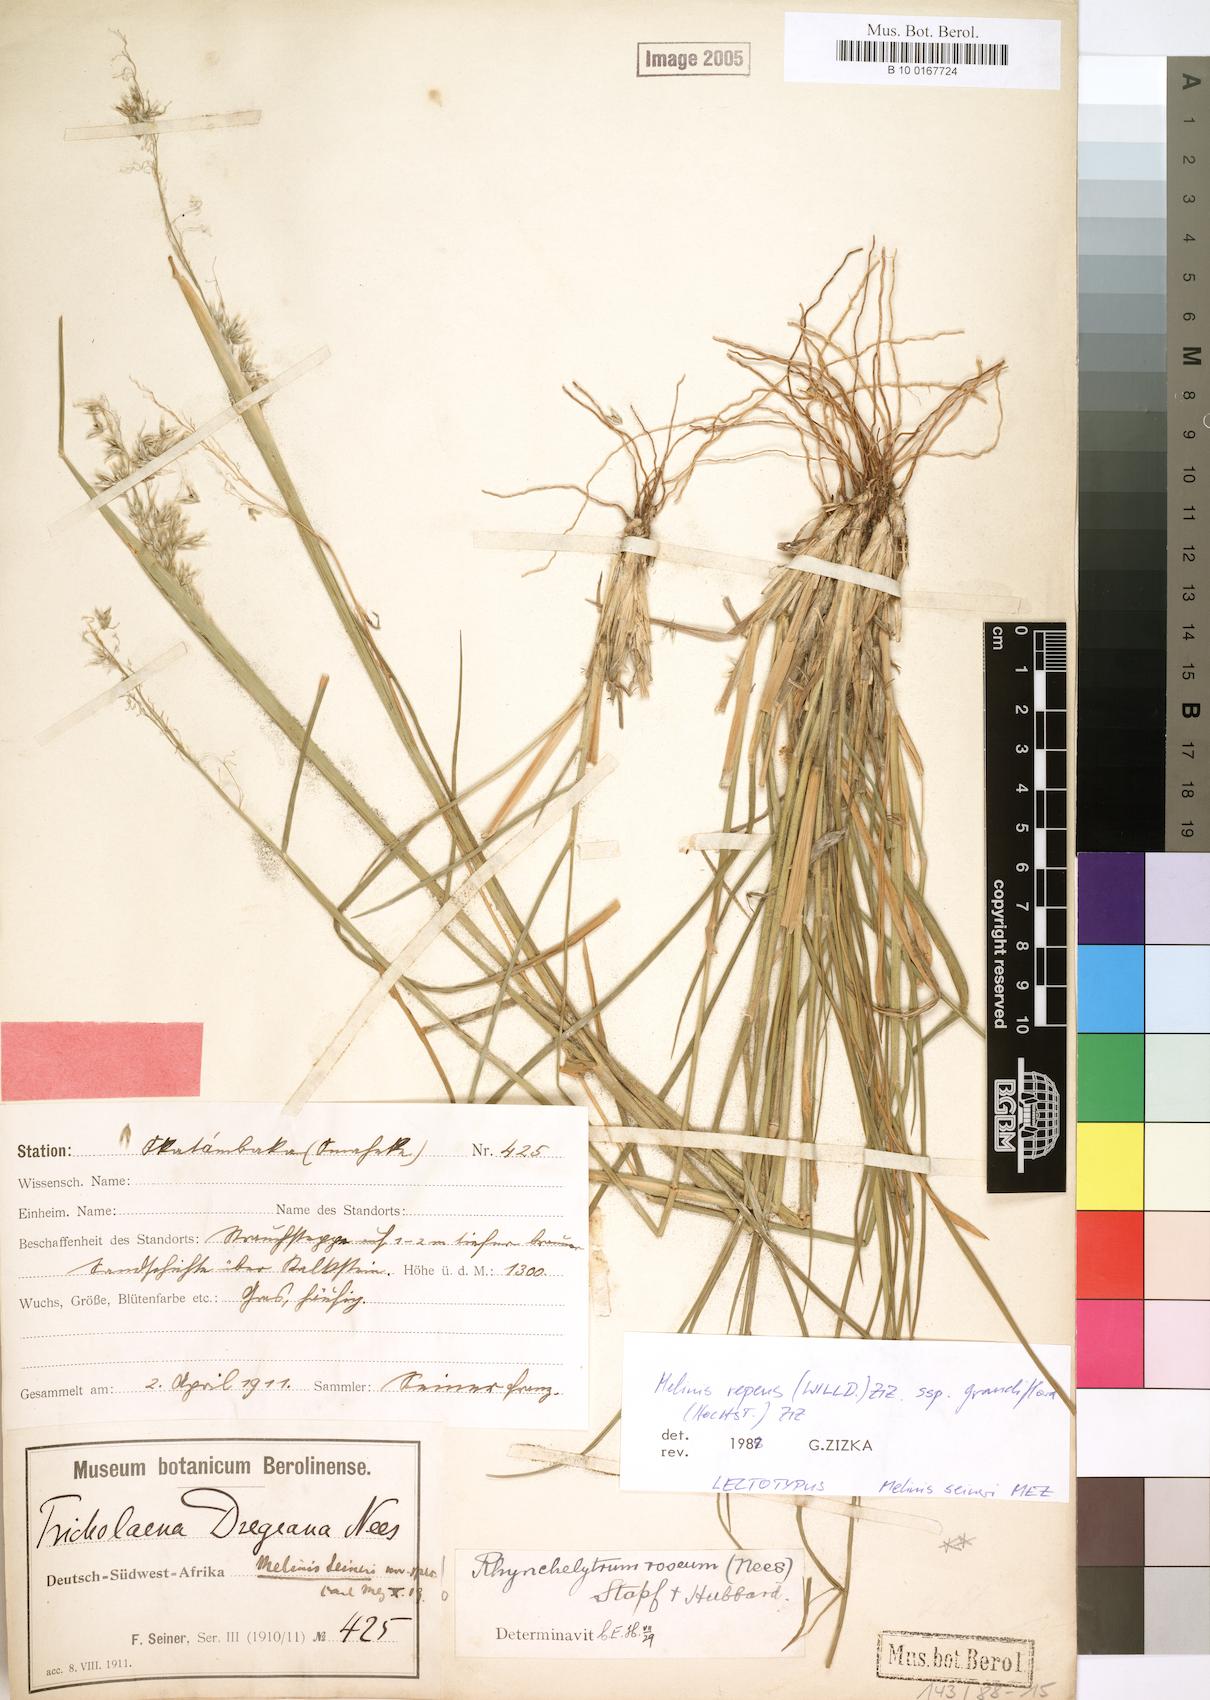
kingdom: Plantae
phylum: Tracheophyta
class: Liliopsida
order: Poales
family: Poaceae
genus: Melinis
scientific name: Melinis repens
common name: Rose natal grass
